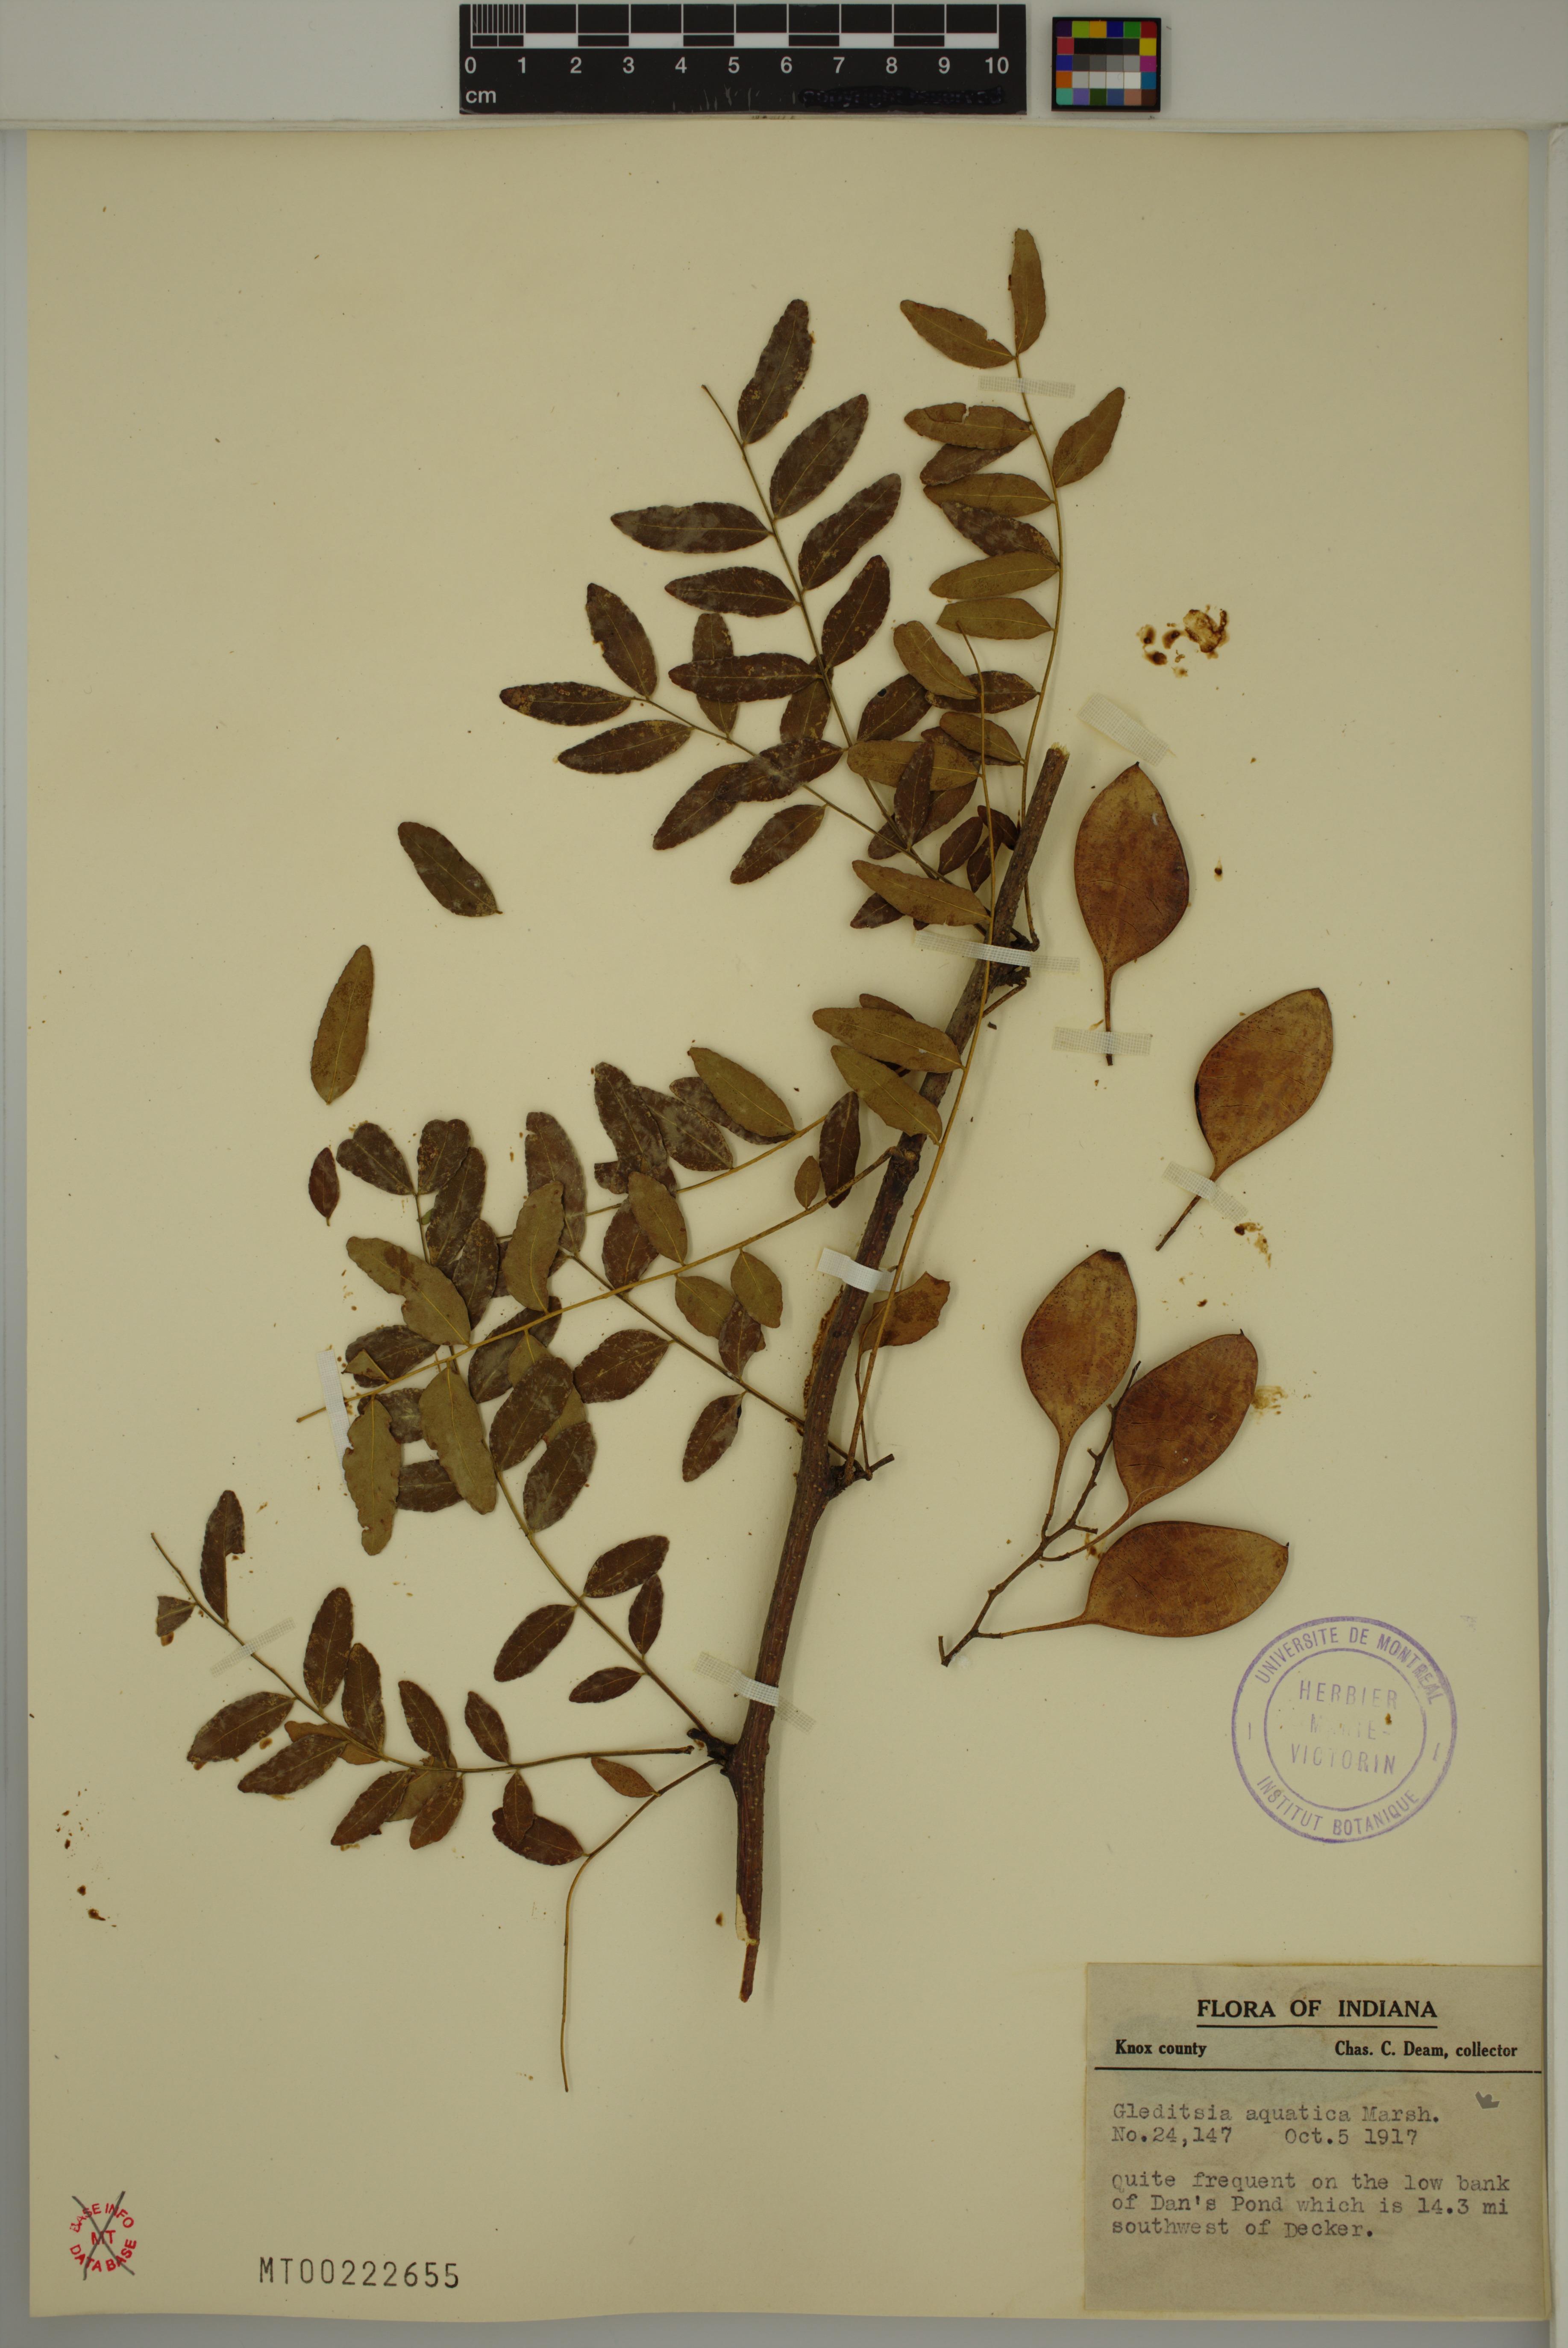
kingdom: Plantae
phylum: Tracheophyta
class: Magnoliopsida
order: Fabales
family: Fabaceae
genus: Gleditsia
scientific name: Gleditsia aquatica
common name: Swamp-locust
